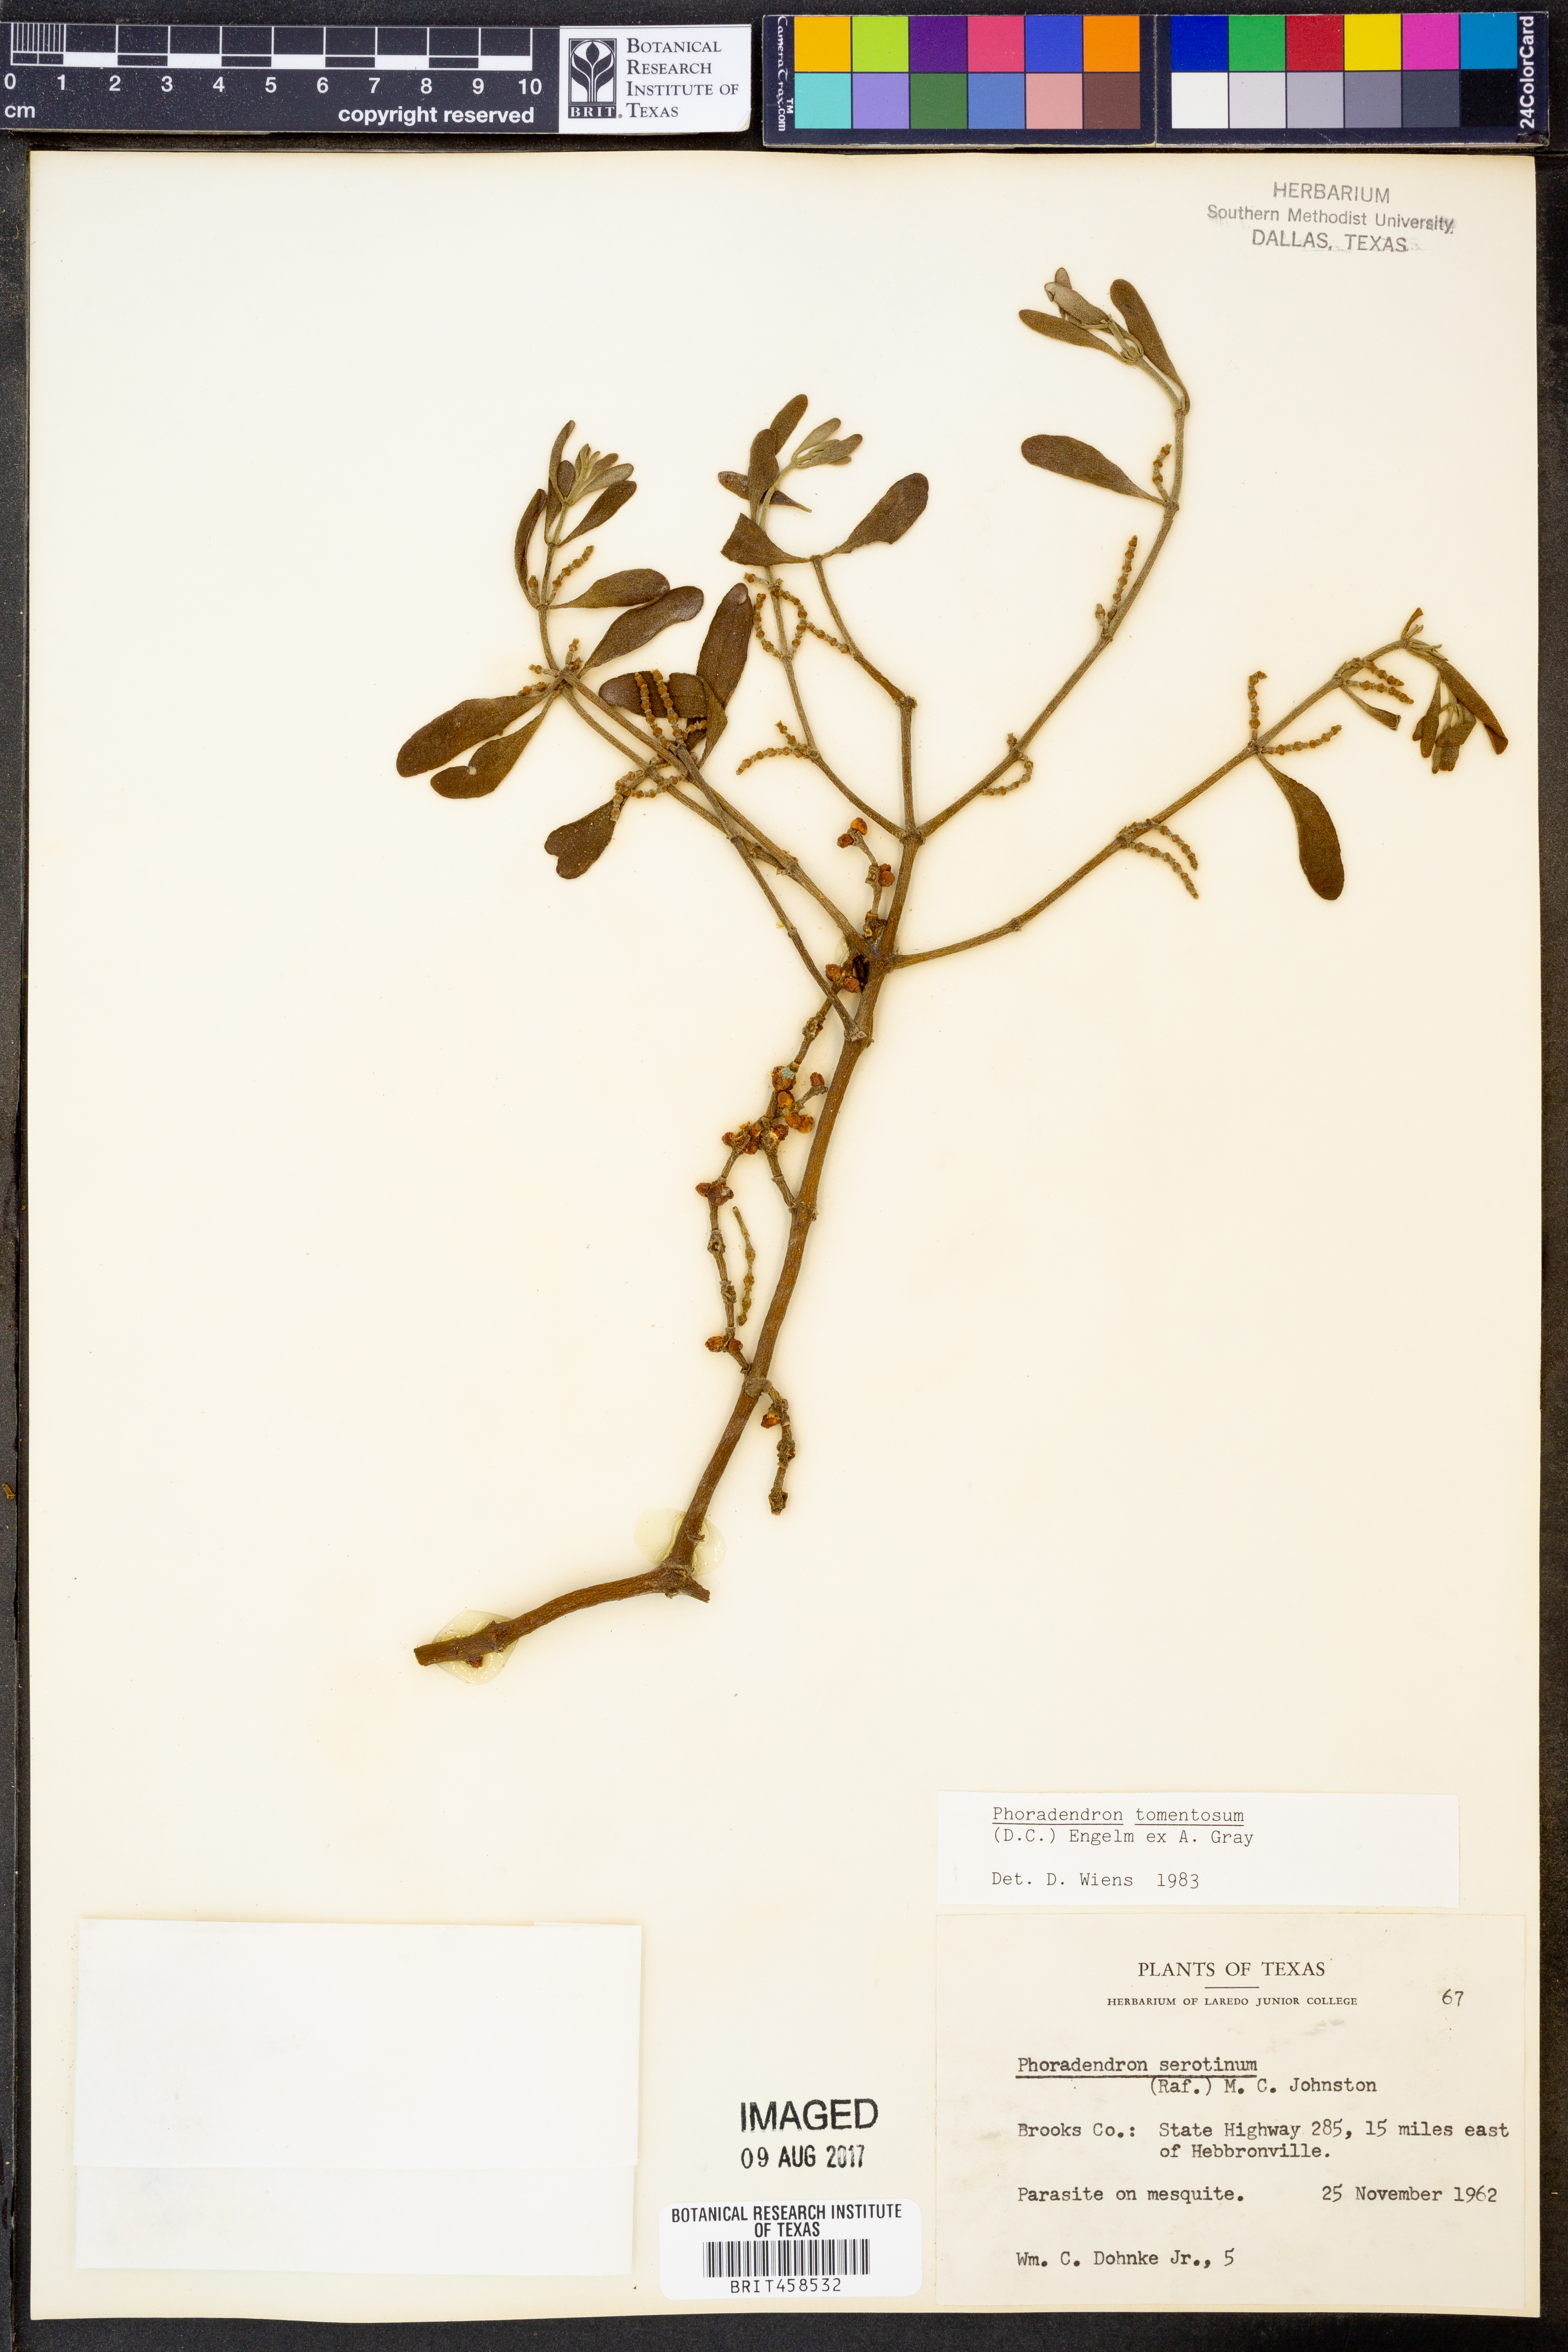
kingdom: Plantae
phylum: Tracheophyta
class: Magnoliopsida
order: Santalales
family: Viscaceae
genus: Phoradendron
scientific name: Phoradendron leucarpum
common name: Pacific mistletoe
